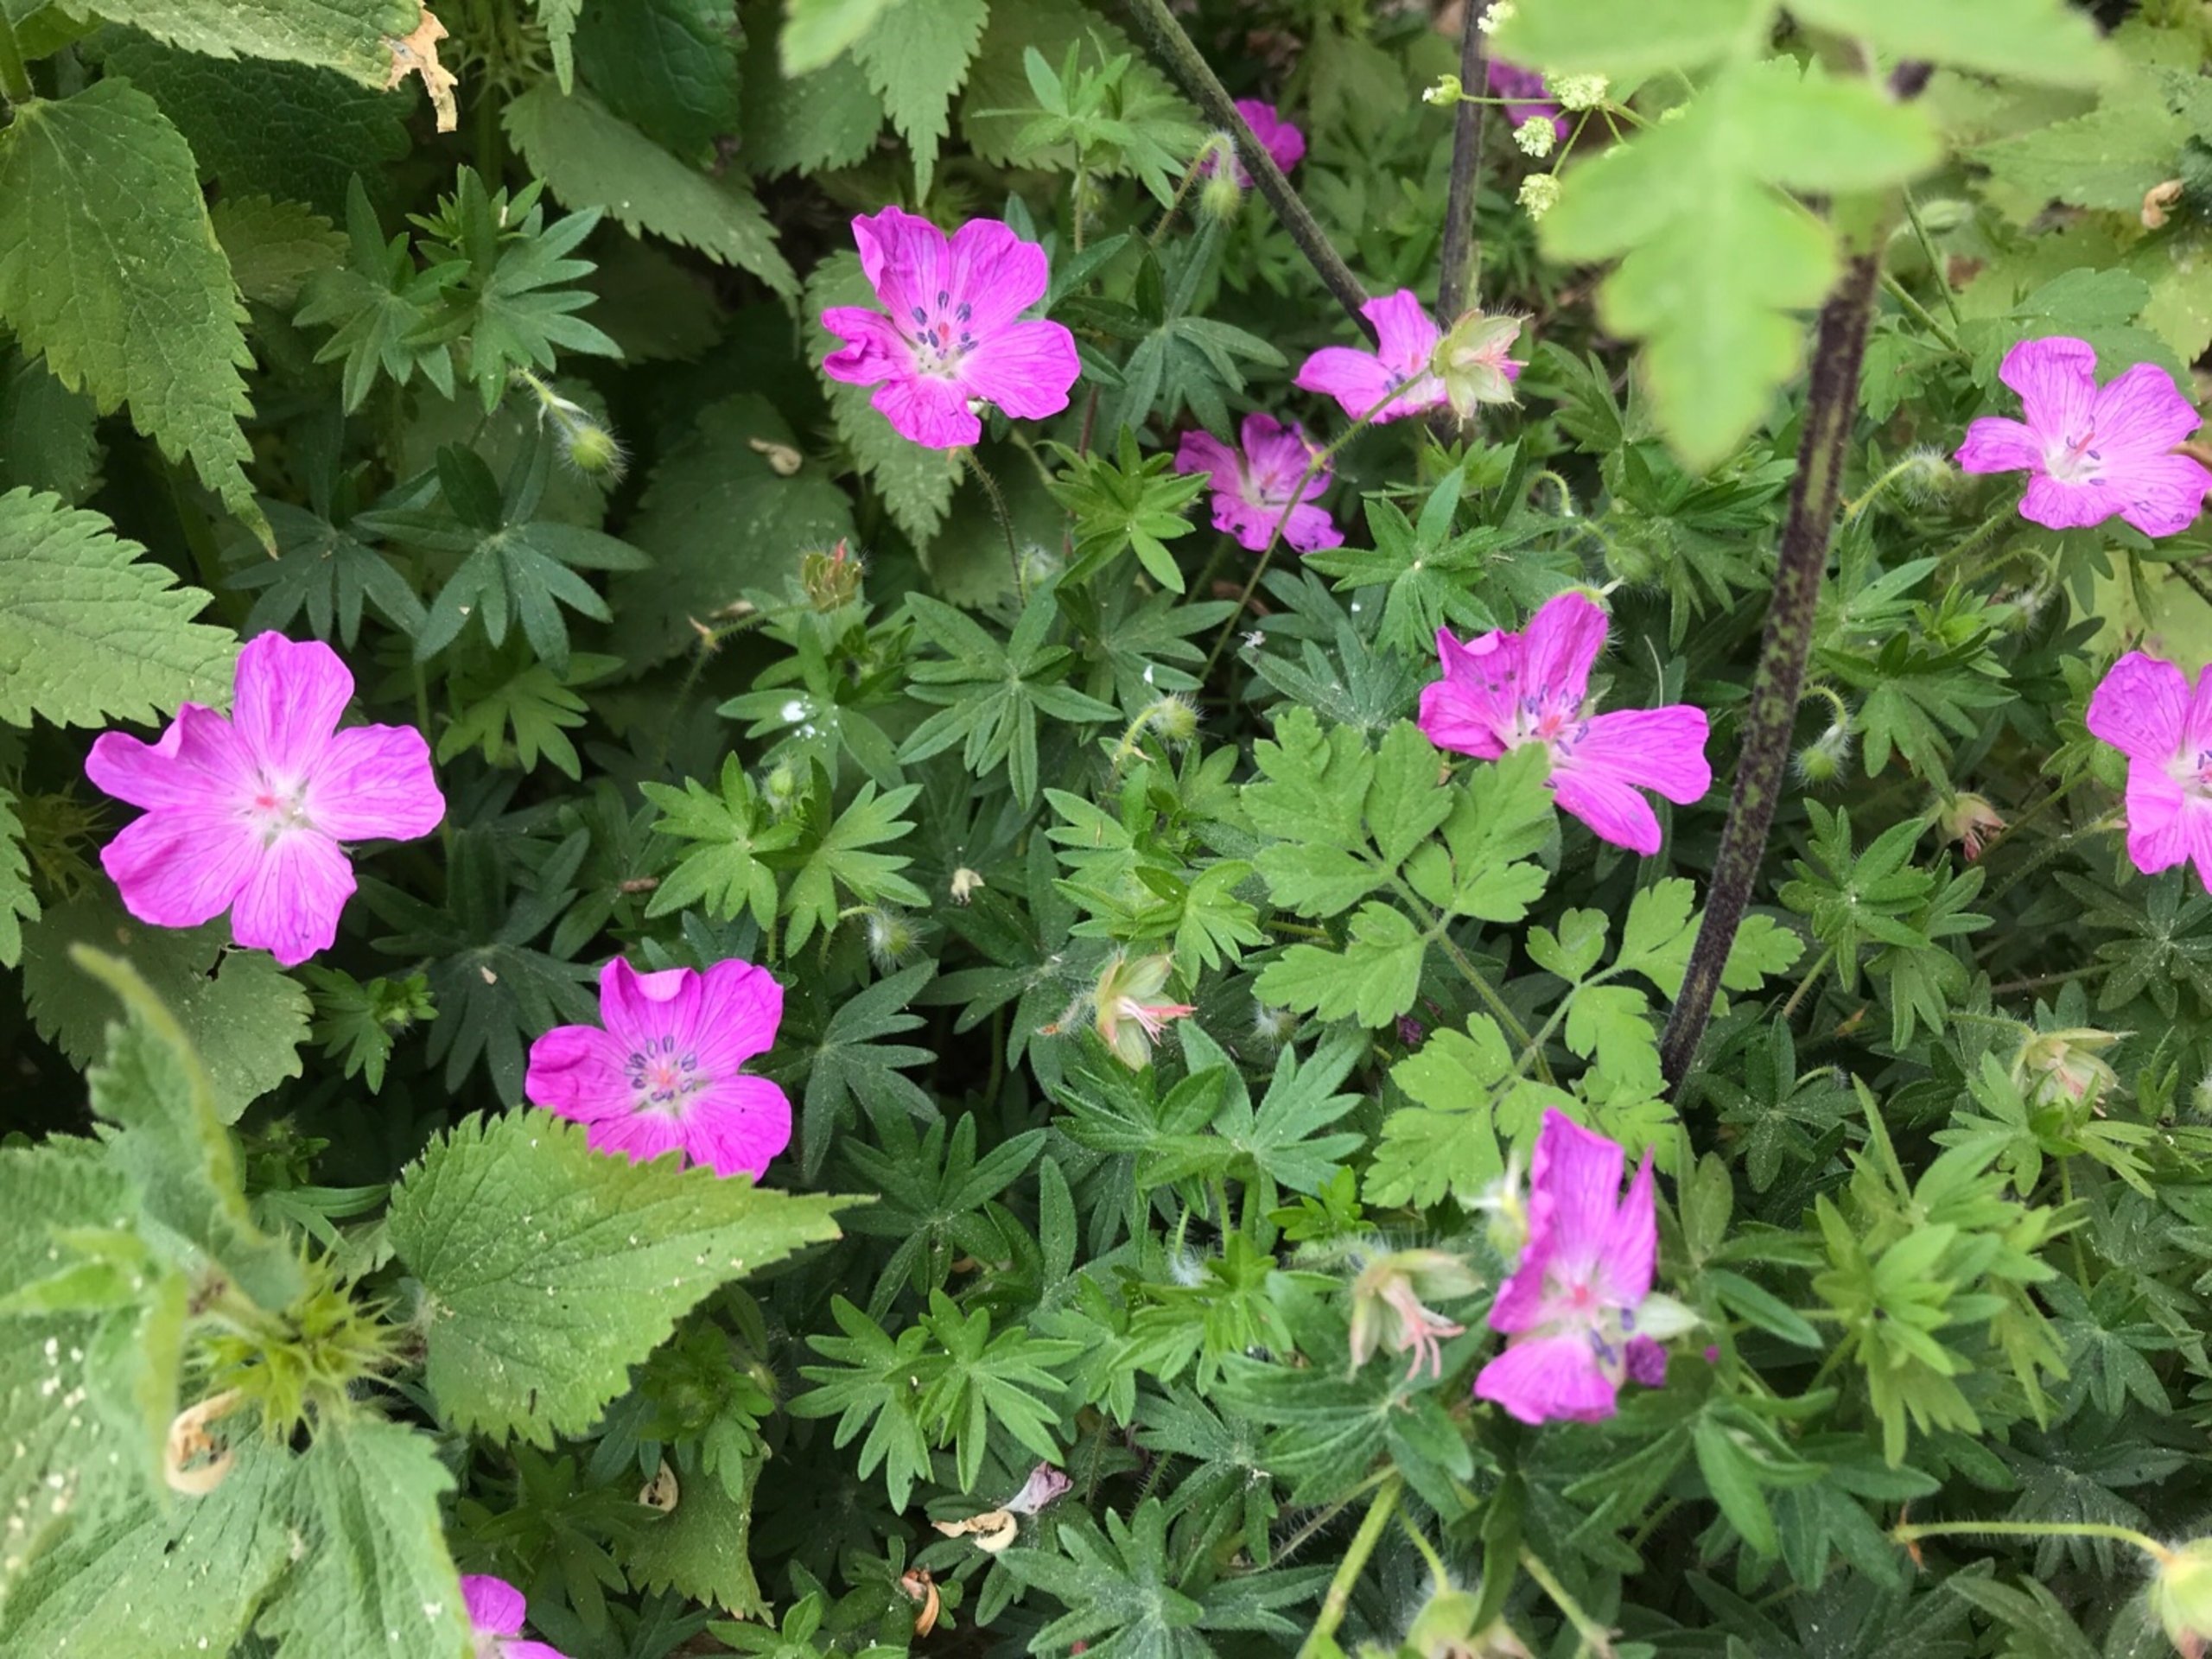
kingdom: Plantae
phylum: Tracheophyta
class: Magnoliopsida
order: Geraniales
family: Geraniaceae
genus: Geranium
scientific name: Geranium sanguineum
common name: Blodrød storkenæb
